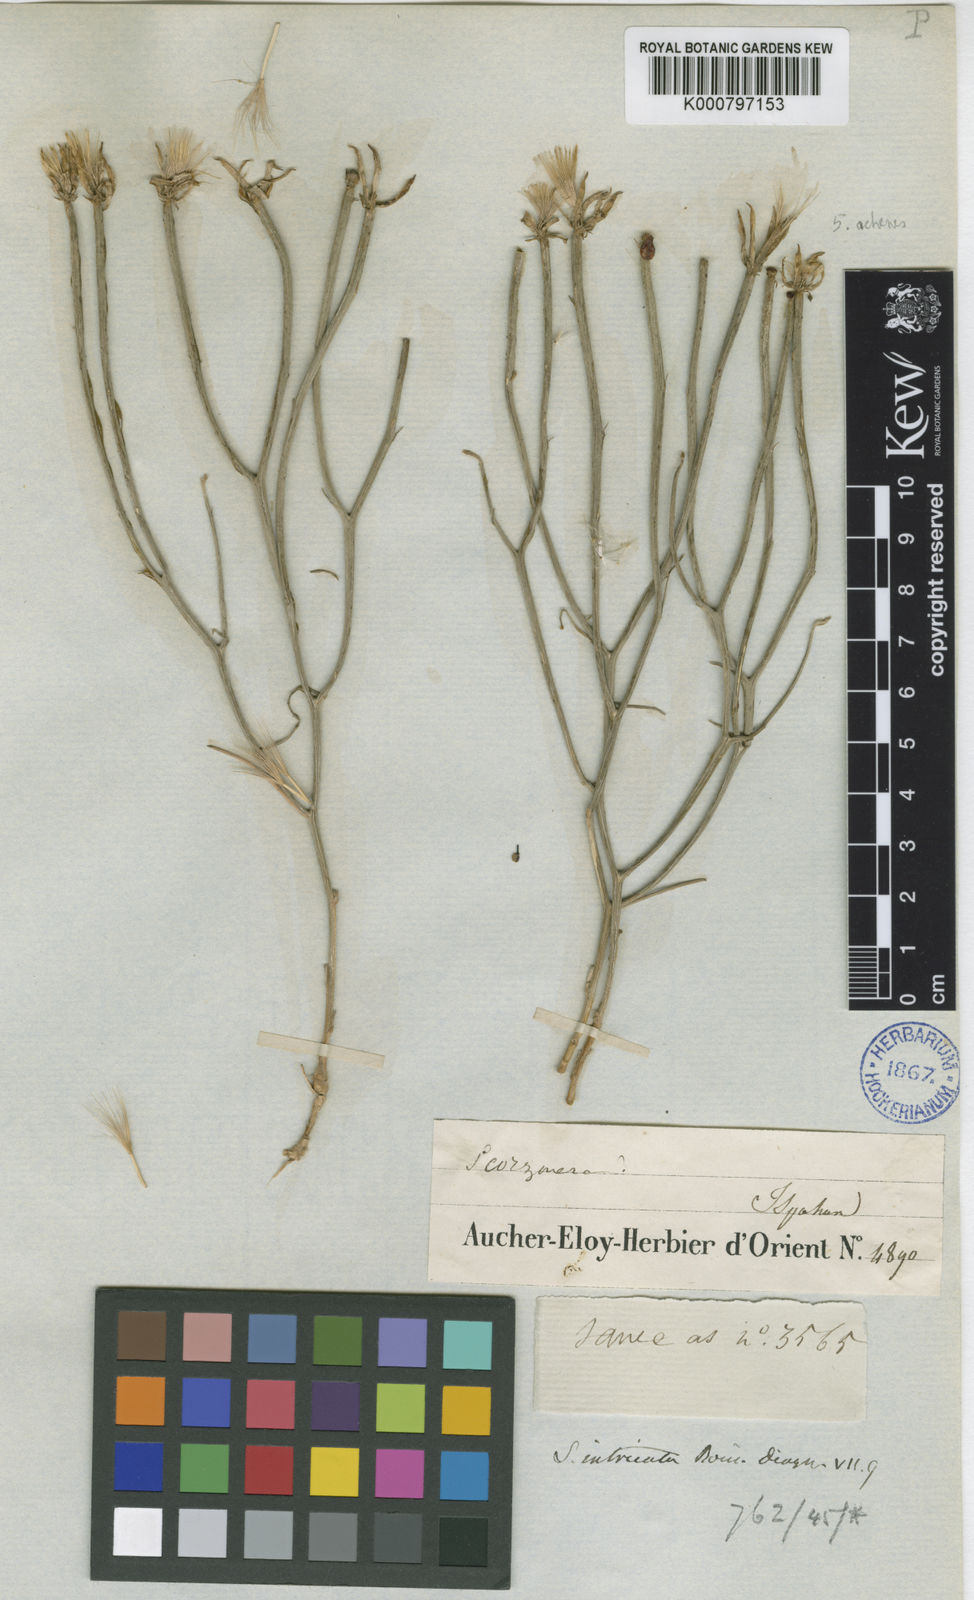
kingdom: Plantae
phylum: Tracheophyta
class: Magnoliopsida
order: Asterales
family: Asteraceae
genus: Ramaliella
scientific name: Ramaliella intricata
